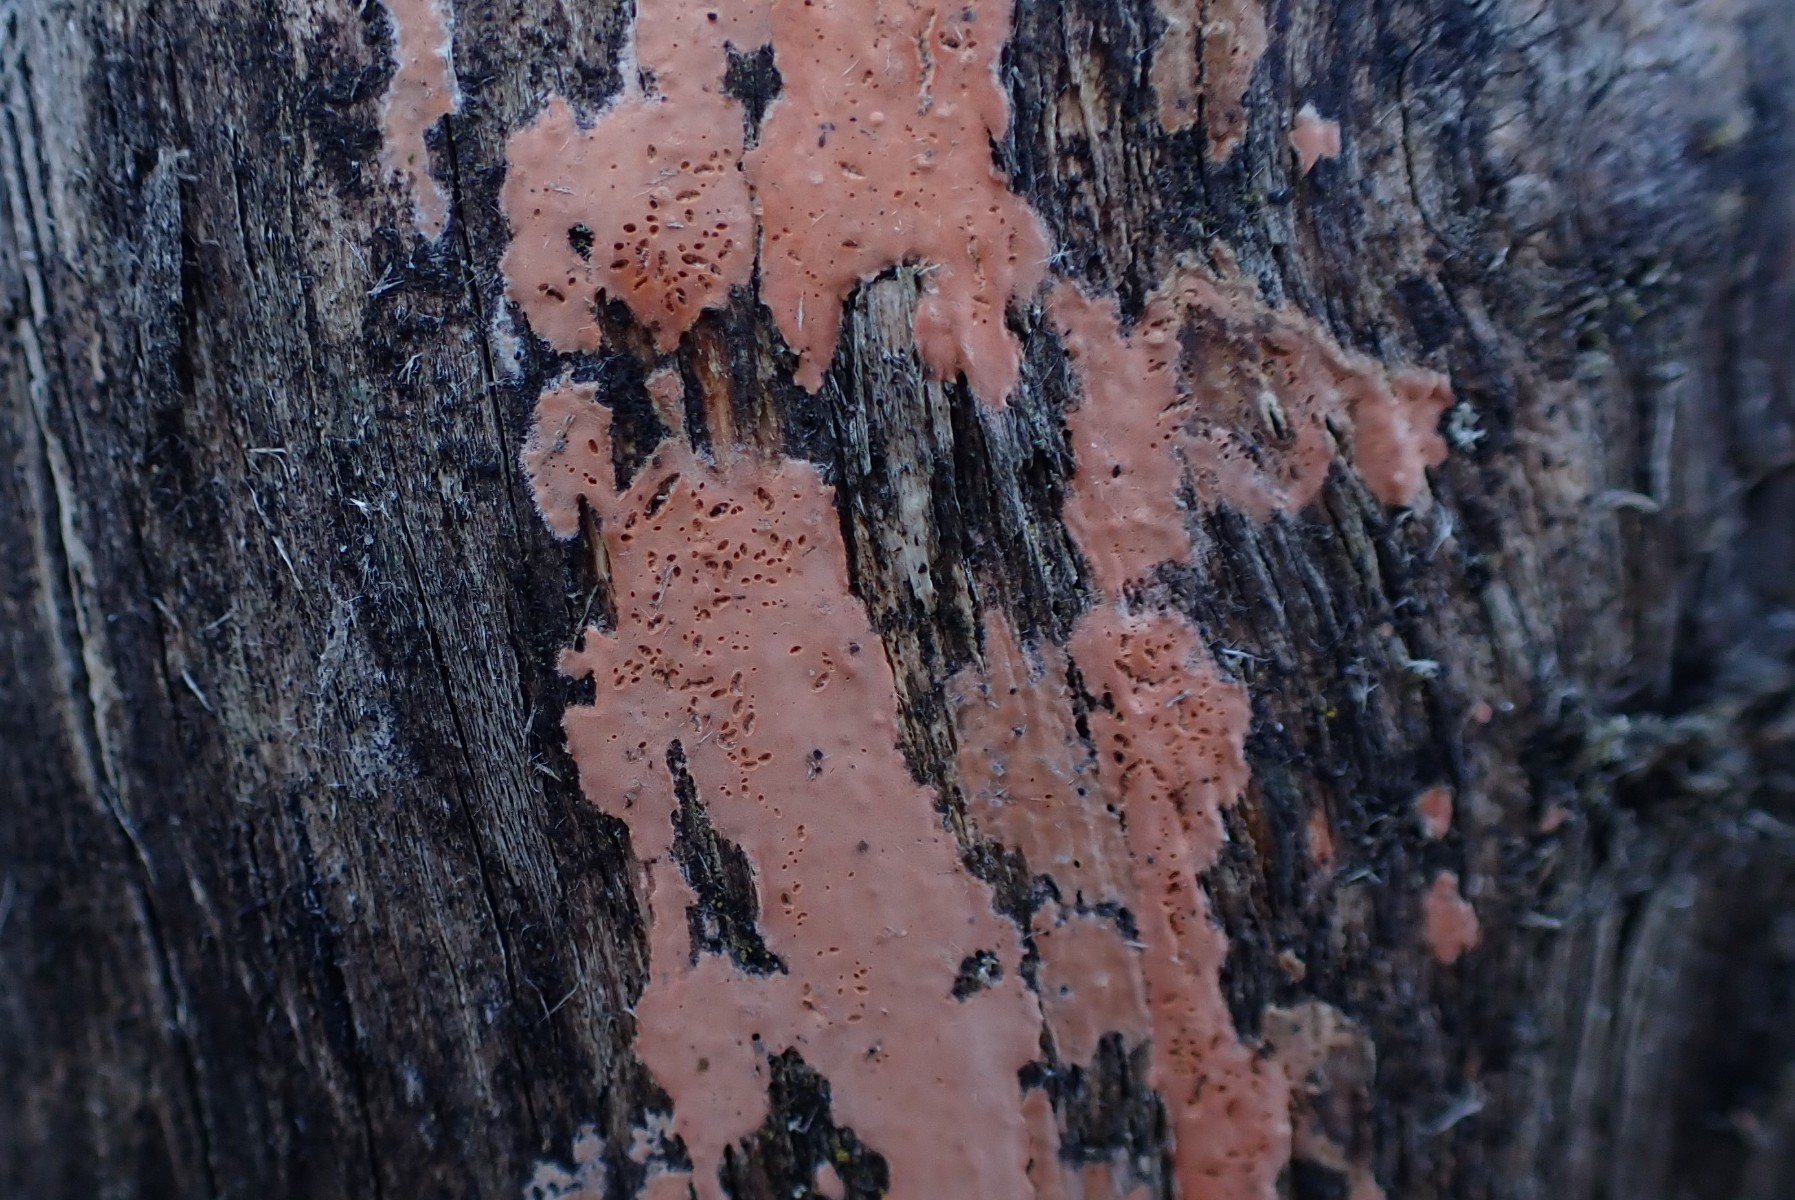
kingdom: Fungi
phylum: Basidiomycota
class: Agaricomycetes
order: Russulales
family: Peniophoraceae
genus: Peniophora
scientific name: Peniophora incarnata
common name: laksefarvet voksskind
